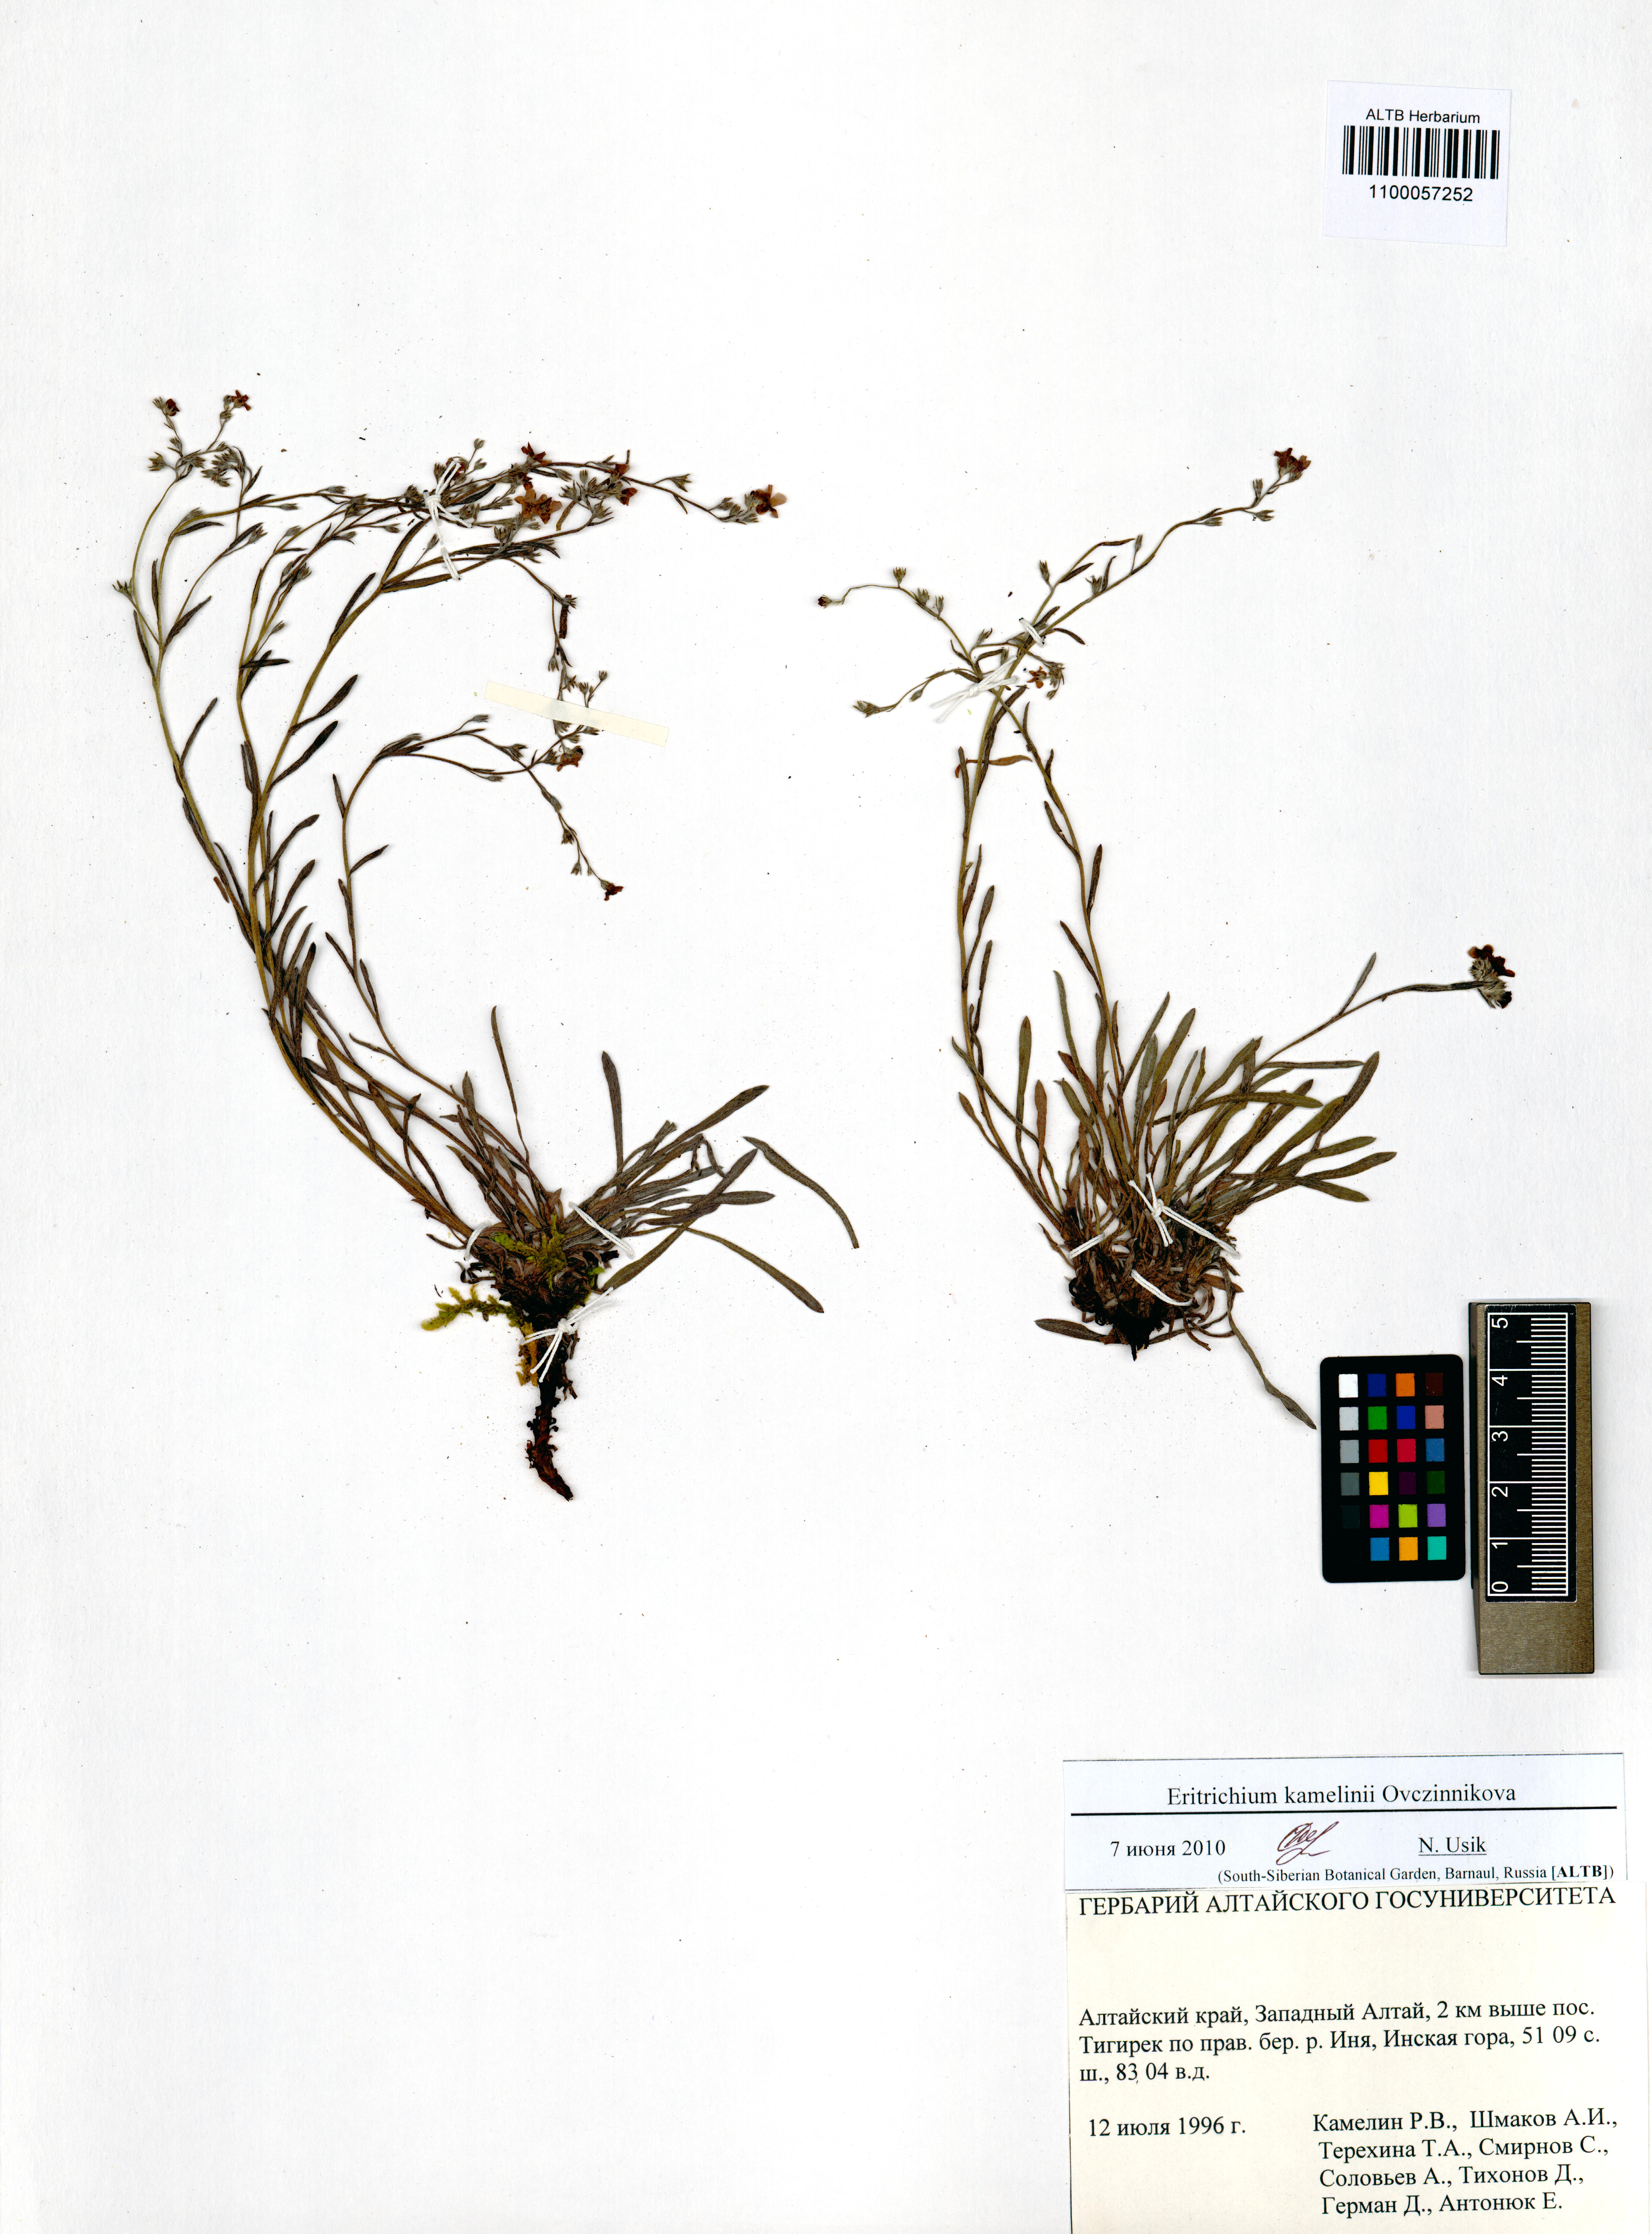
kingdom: Plantae
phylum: Tracheophyta
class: Magnoliopsida
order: Boraginales
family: Boraginaceae
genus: Eritrichium
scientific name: Eritrichium kamelinii
